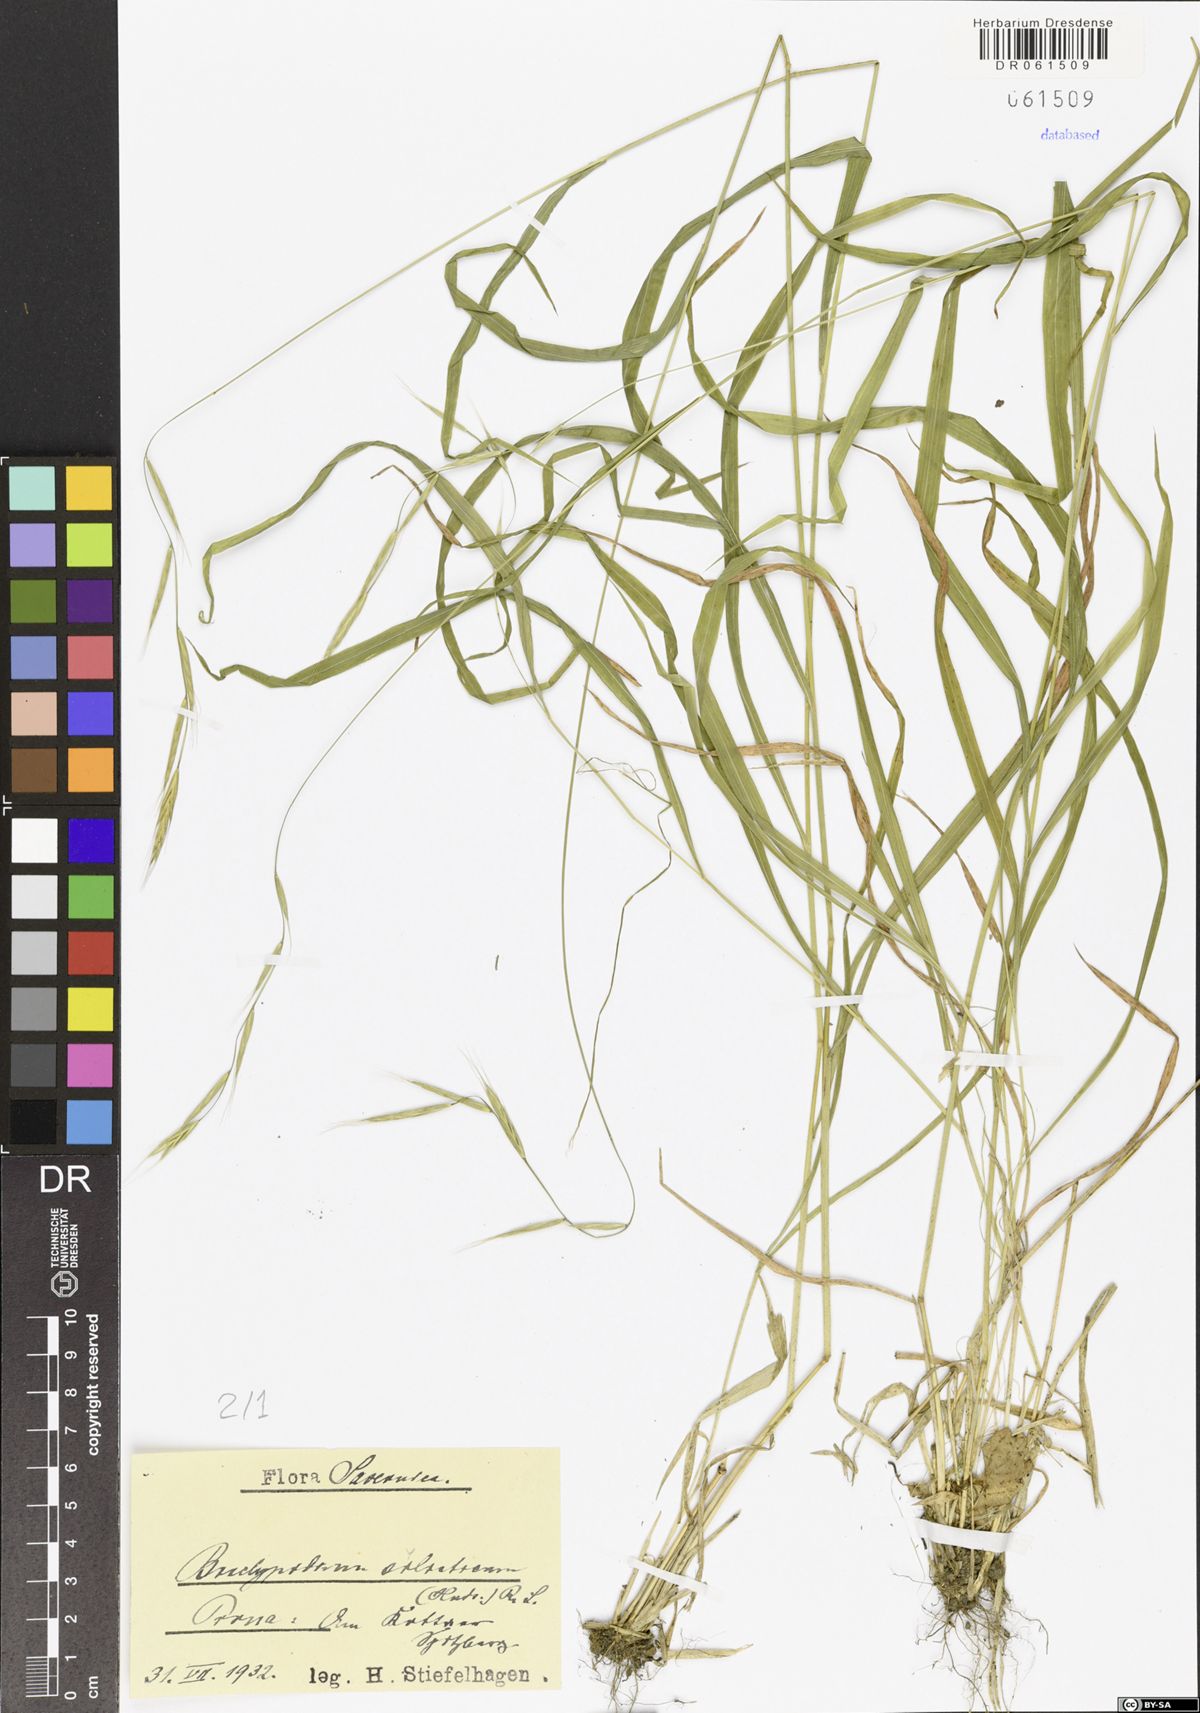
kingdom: Plantae
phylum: Tracheophyta
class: Liliopsida
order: Poales
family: Poaceae
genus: Brachypodium
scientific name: Brachypodium sylvaticum
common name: False-brome
